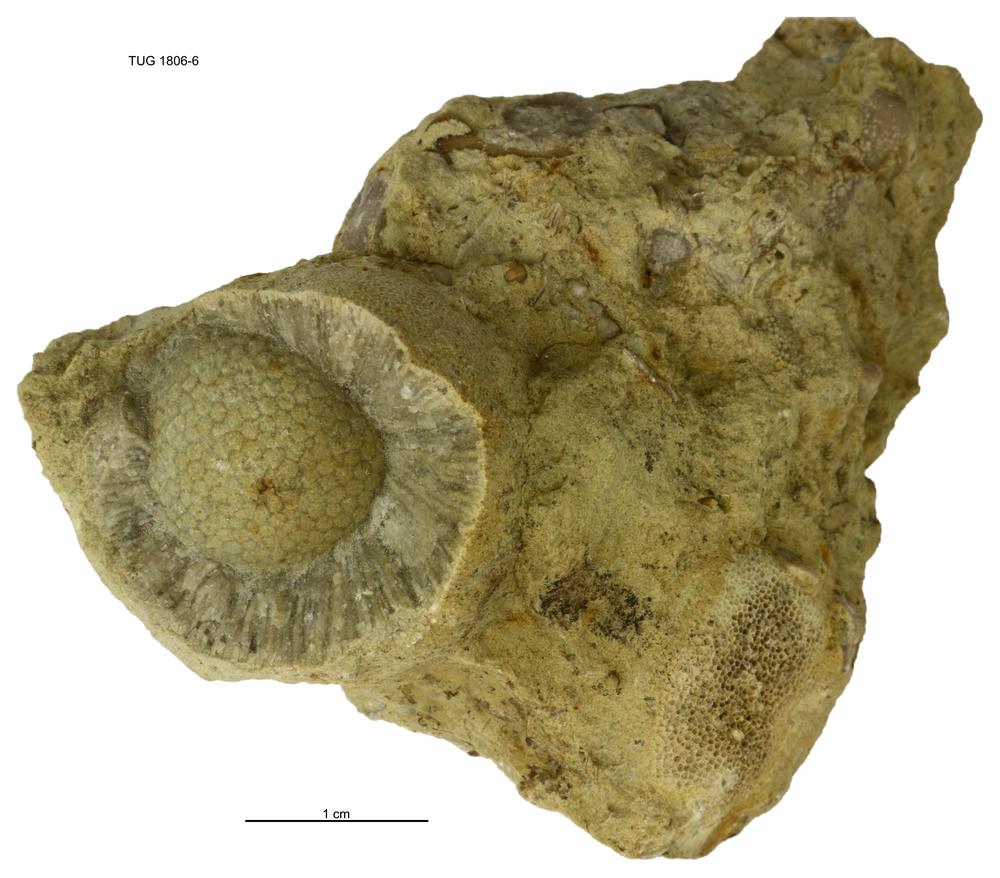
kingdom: Animalia
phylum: Bryozoa
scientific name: Bryozoa
